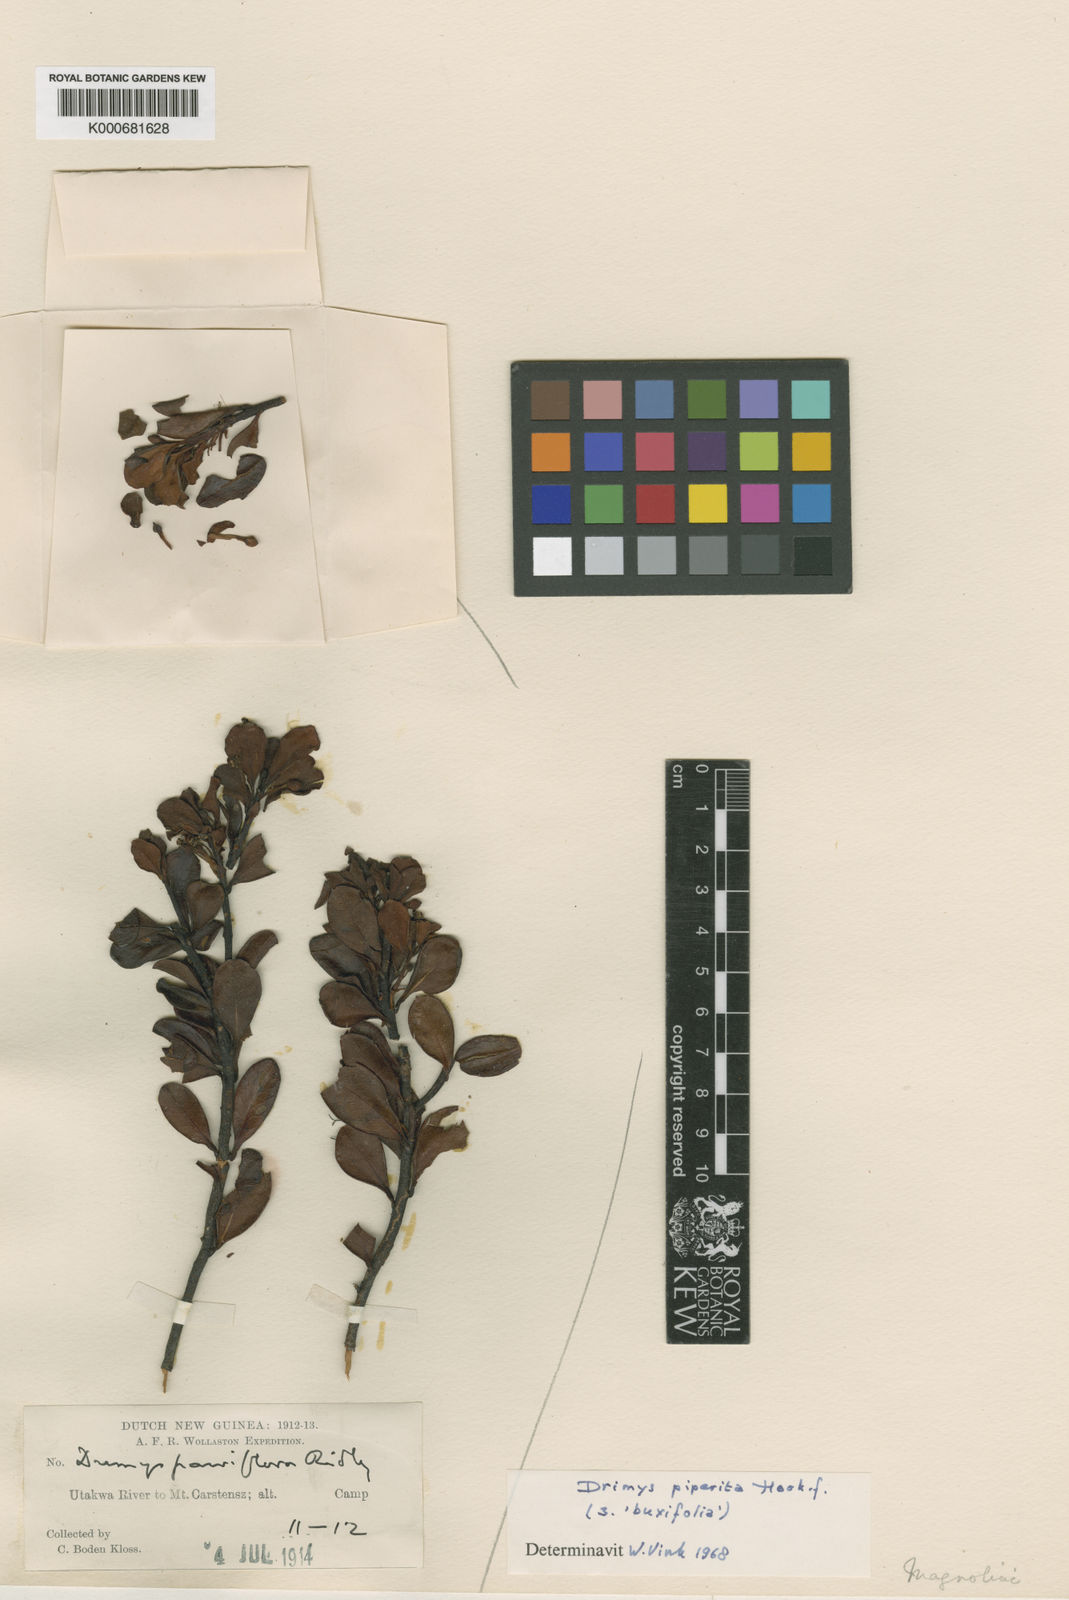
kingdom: Plantae
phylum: Tracheophyta
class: Magnoliopsida
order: Canellales
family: Winteraceae
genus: Drimys
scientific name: Drimys piperita
